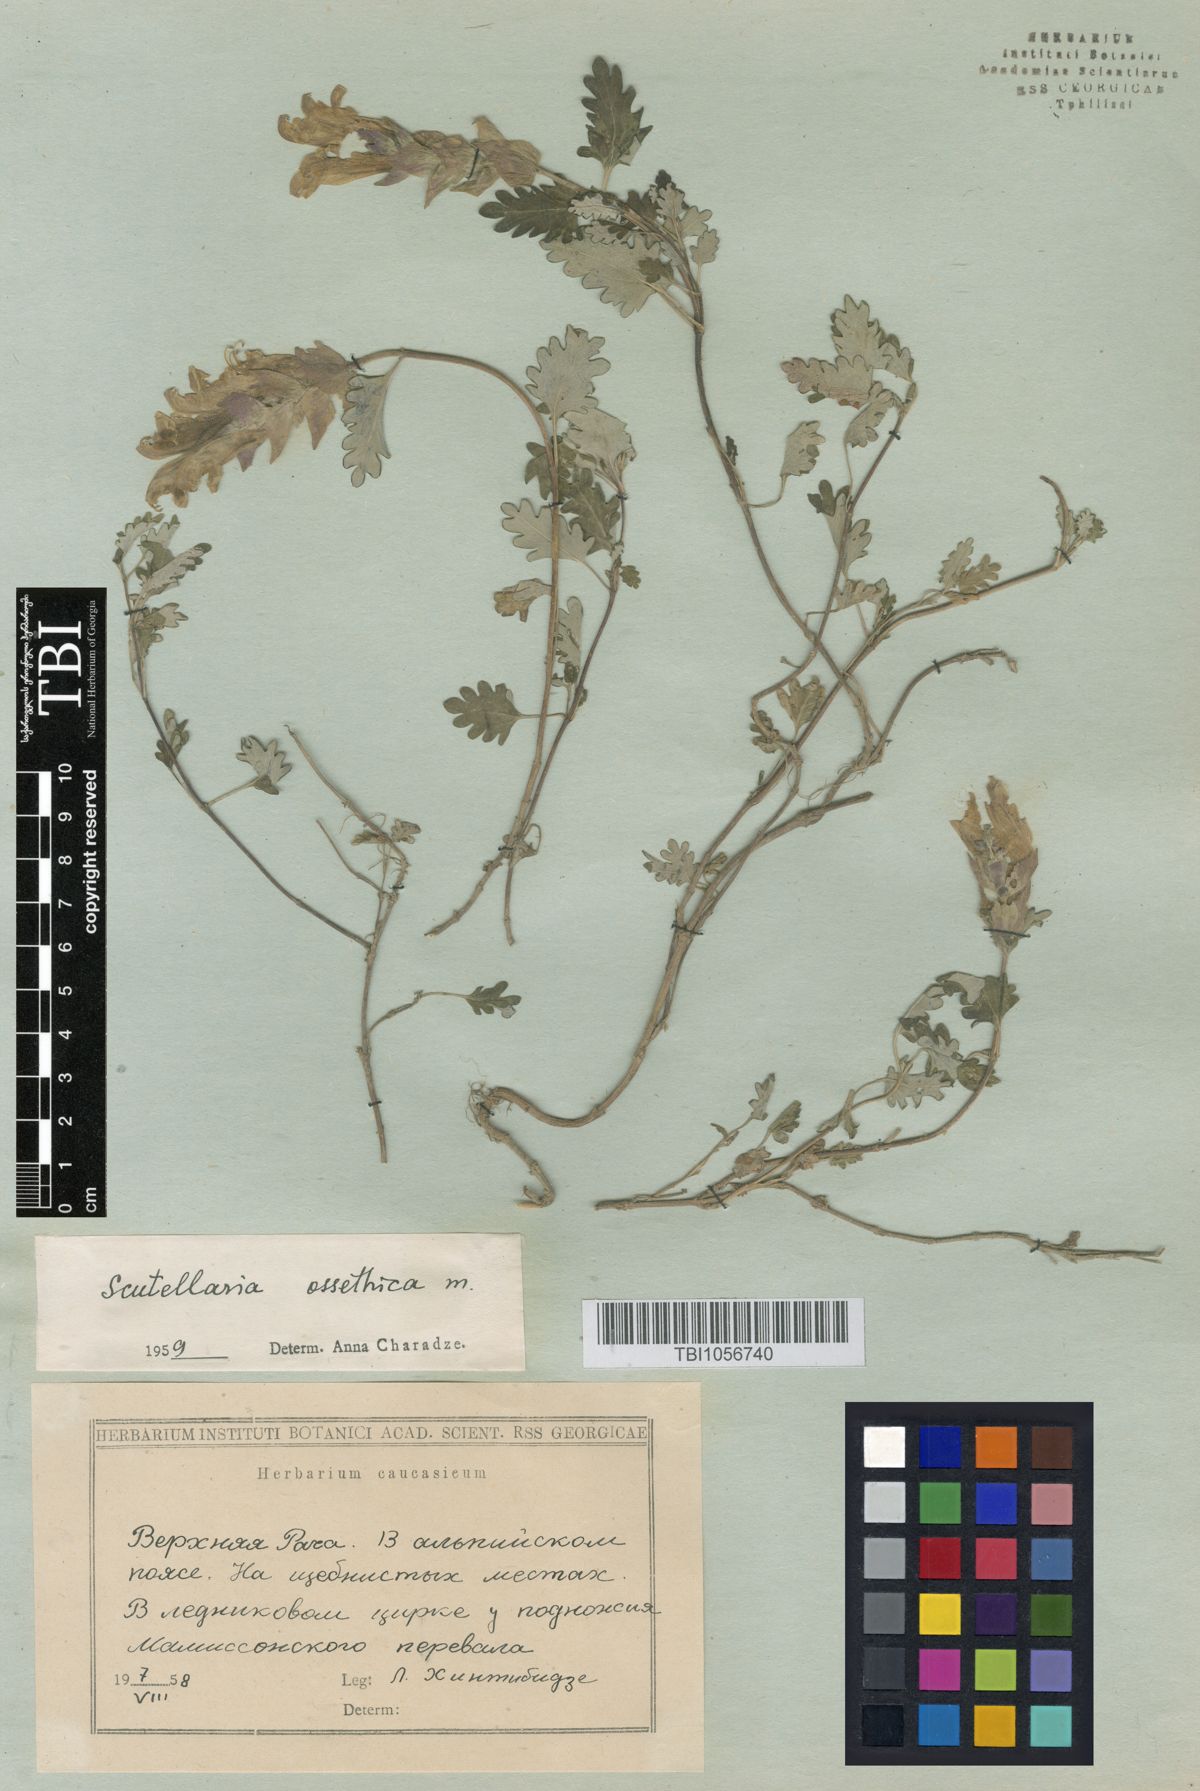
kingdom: Plantae
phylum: Tracheophyta
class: Magnoliopsida
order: Lamiales
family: Lamiaceae
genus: Scutellaria
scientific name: Scutellaria ossethica
